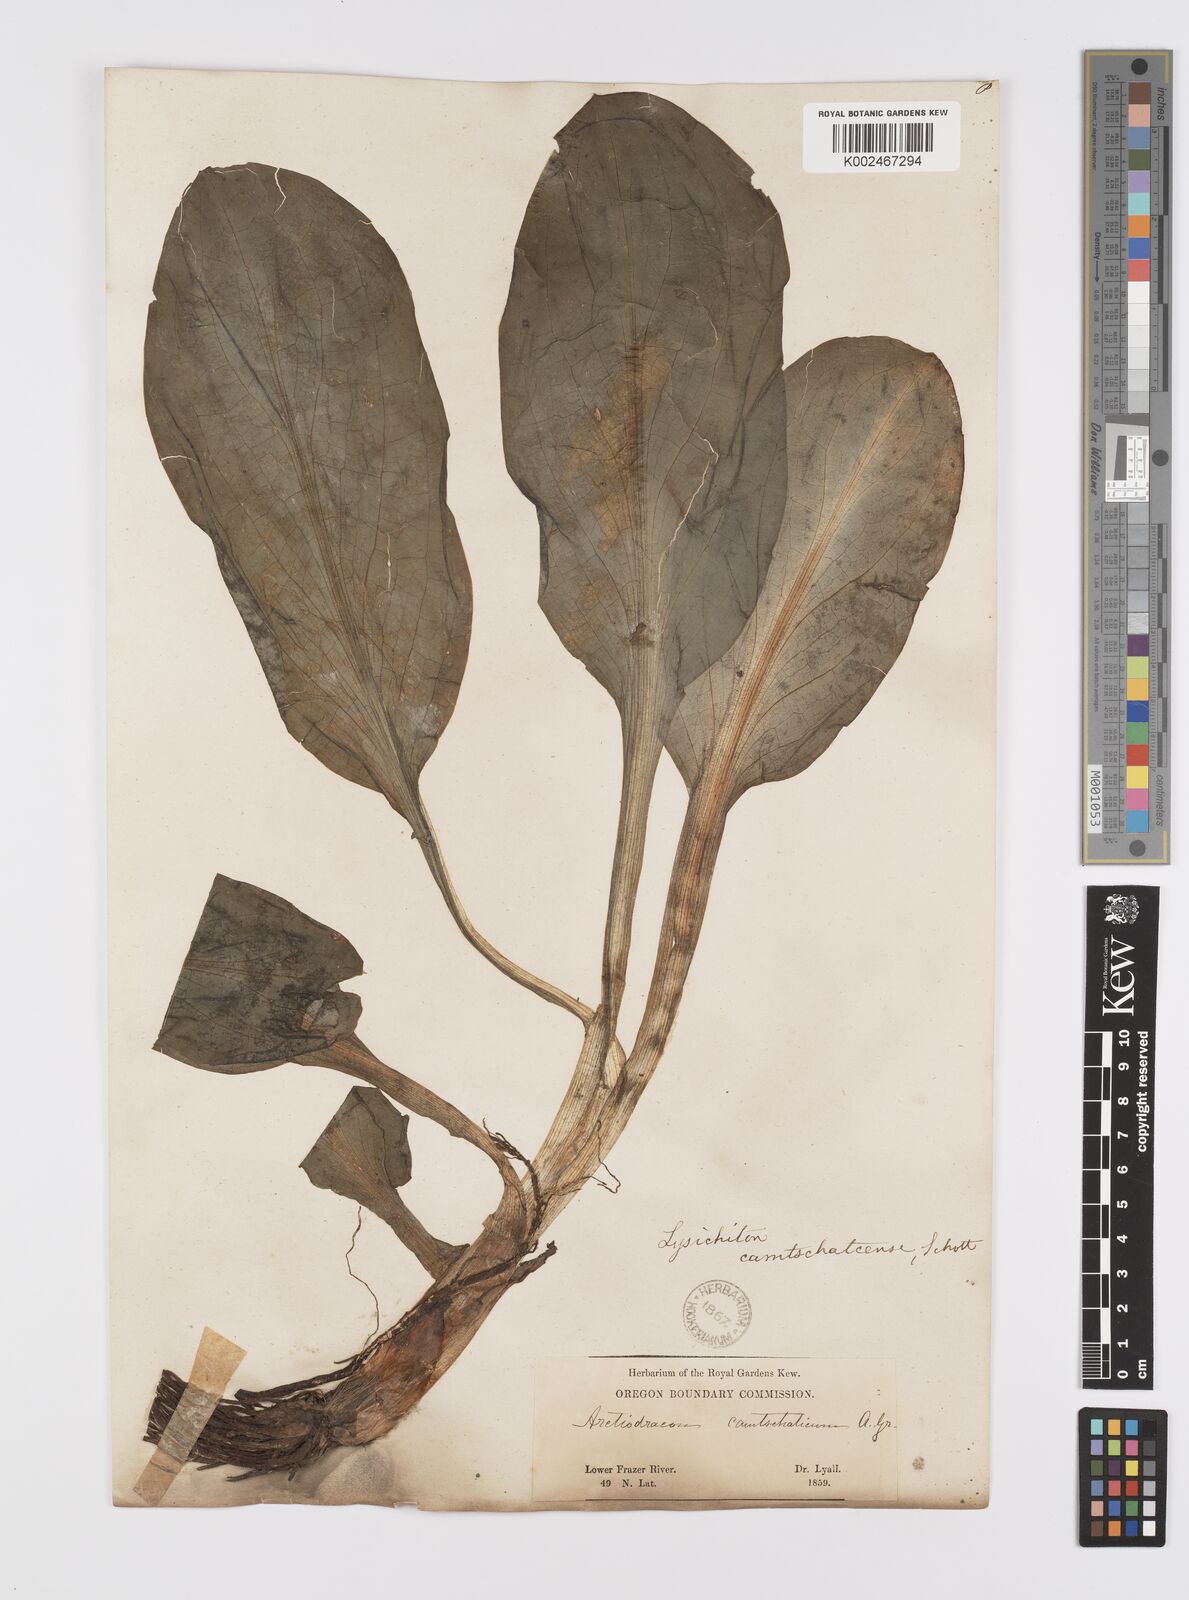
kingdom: Plantae
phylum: Tracheophyta
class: Liliopsida
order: Alismatales
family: Araceae
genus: Lysichiton
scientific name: Lysichiton americanus
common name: American skunk cabbage
